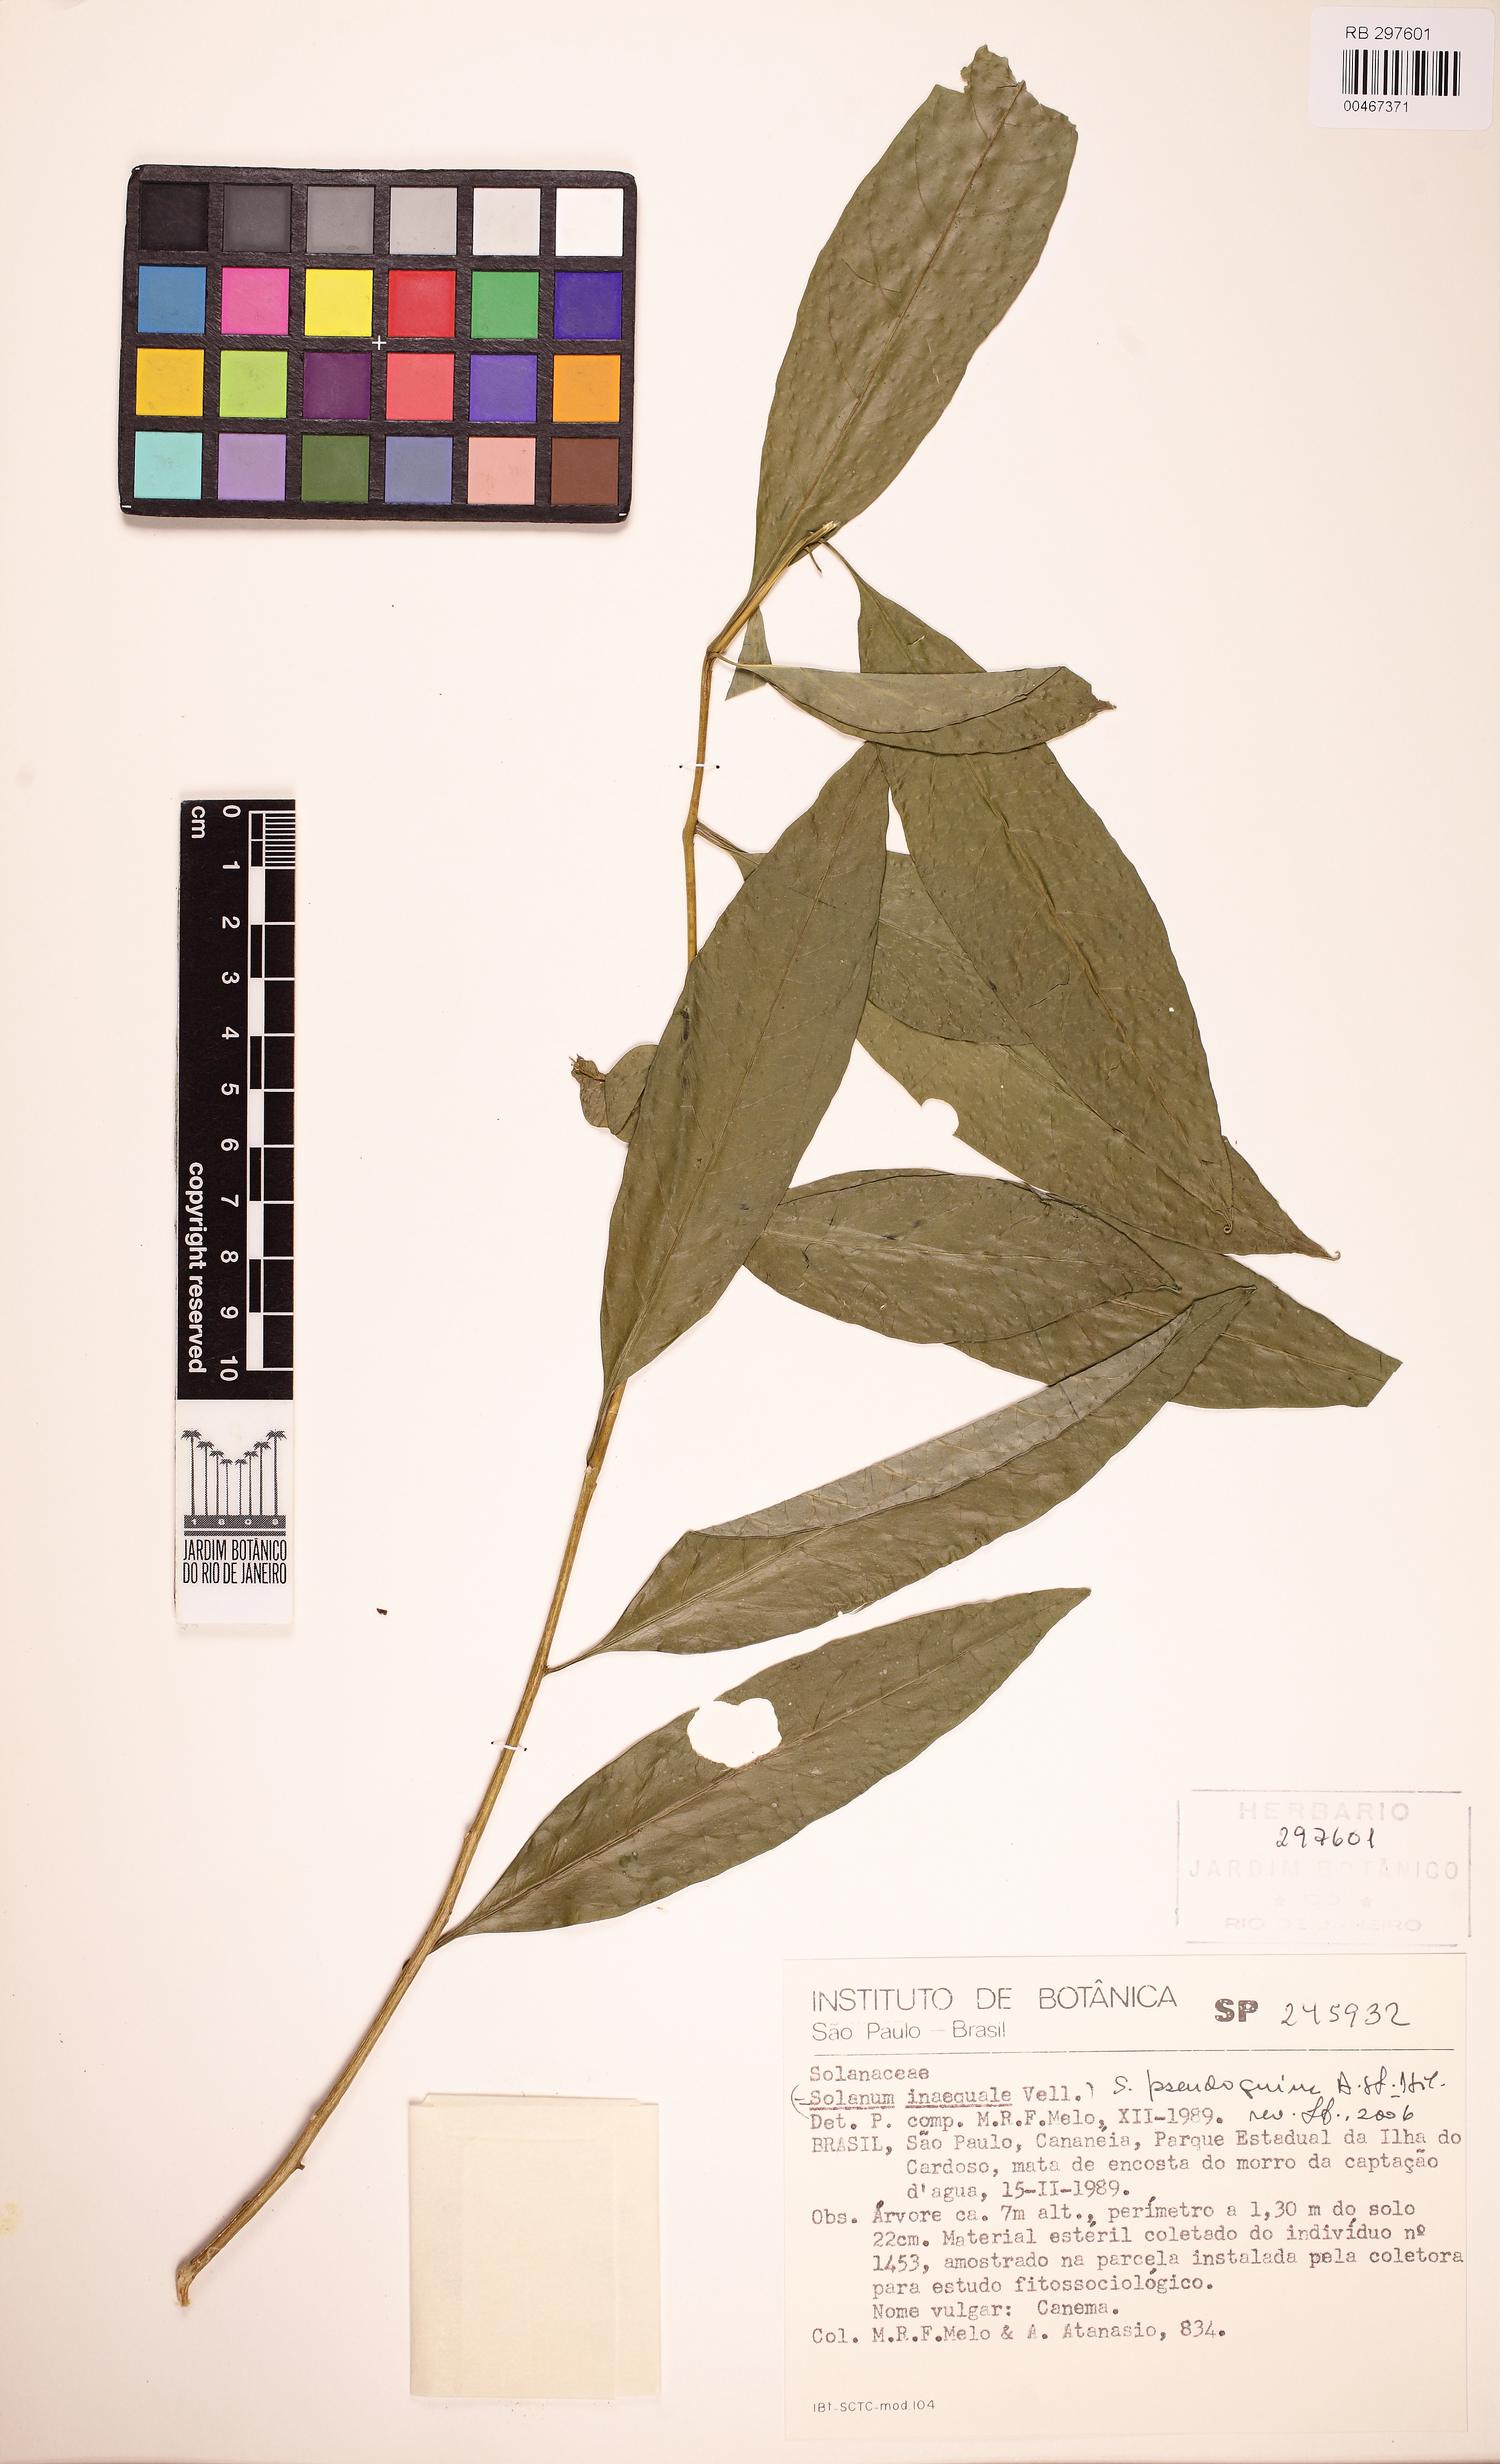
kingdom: Plantae
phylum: Tracheophyta
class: Magnoliopsida
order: Solanales
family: Solanaceae
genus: Solanum
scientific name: Solanum pseudoquina
